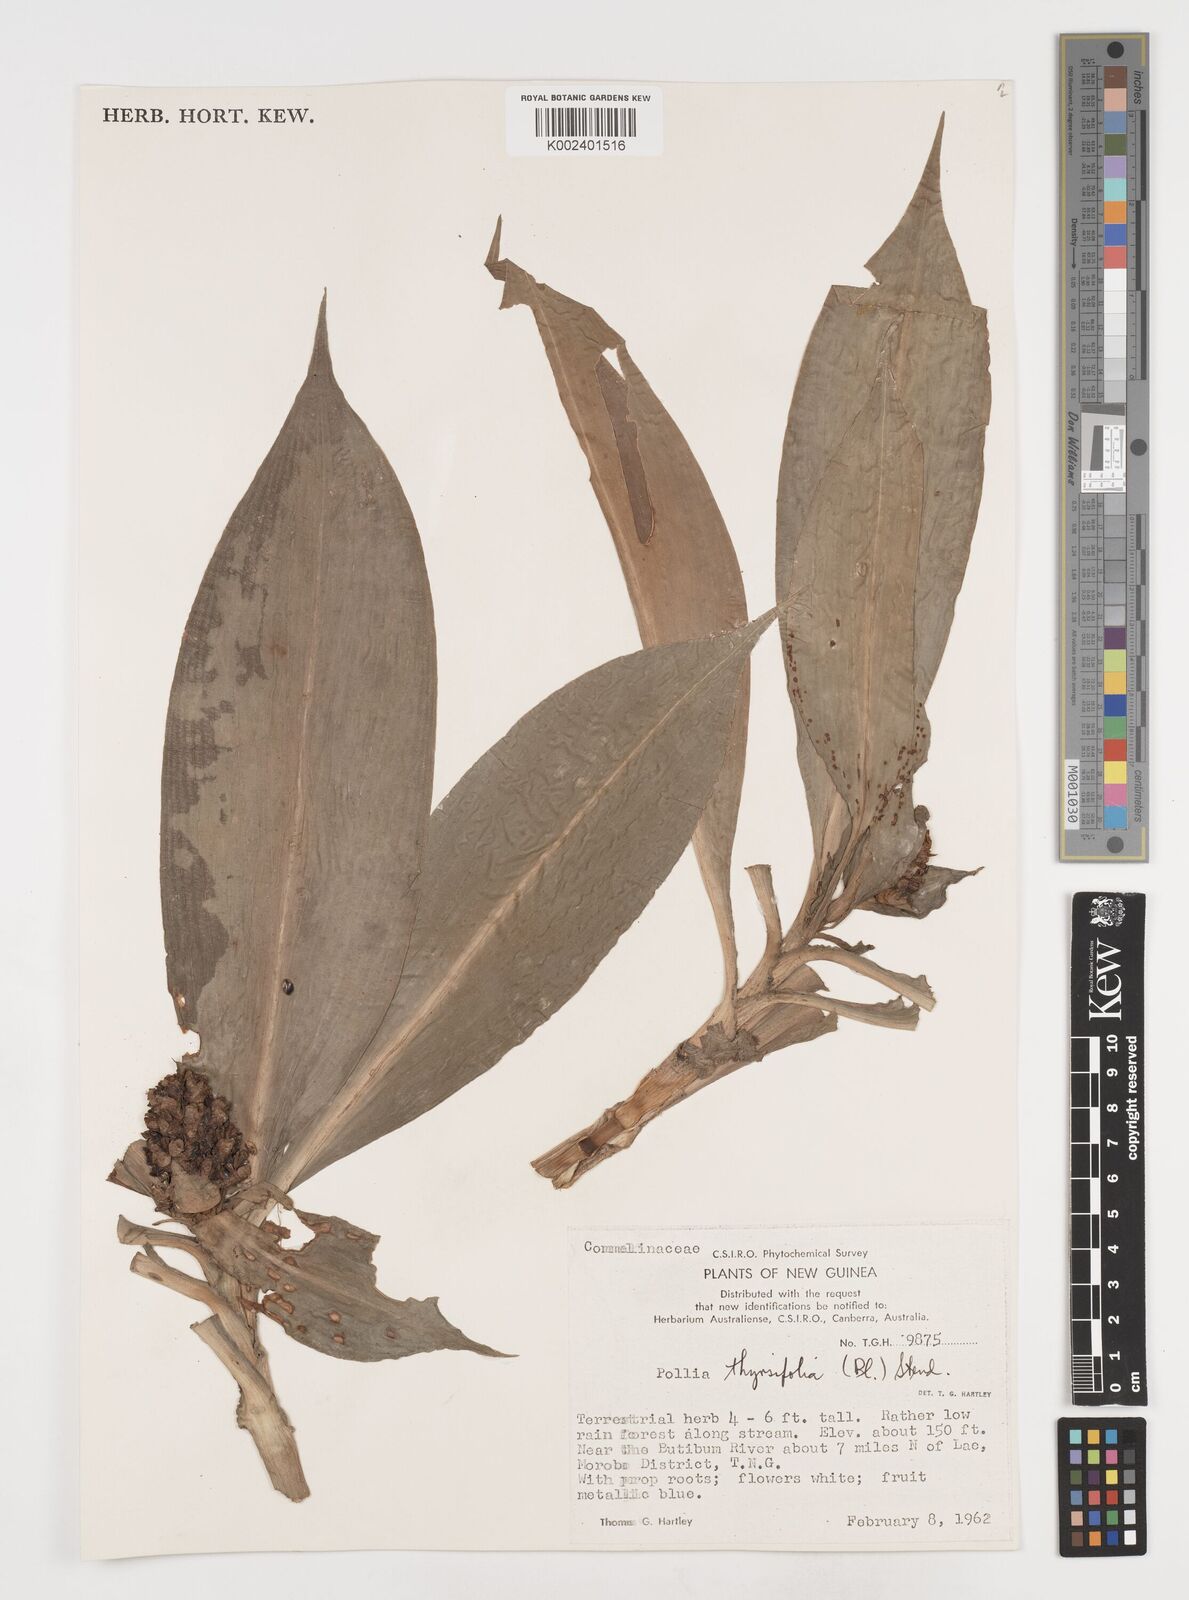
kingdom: Plantae
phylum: Tracheophyta
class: Liliopsida
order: Commelinales
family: Commelinaceae
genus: Pollia
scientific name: Pollia thyrsiflora
